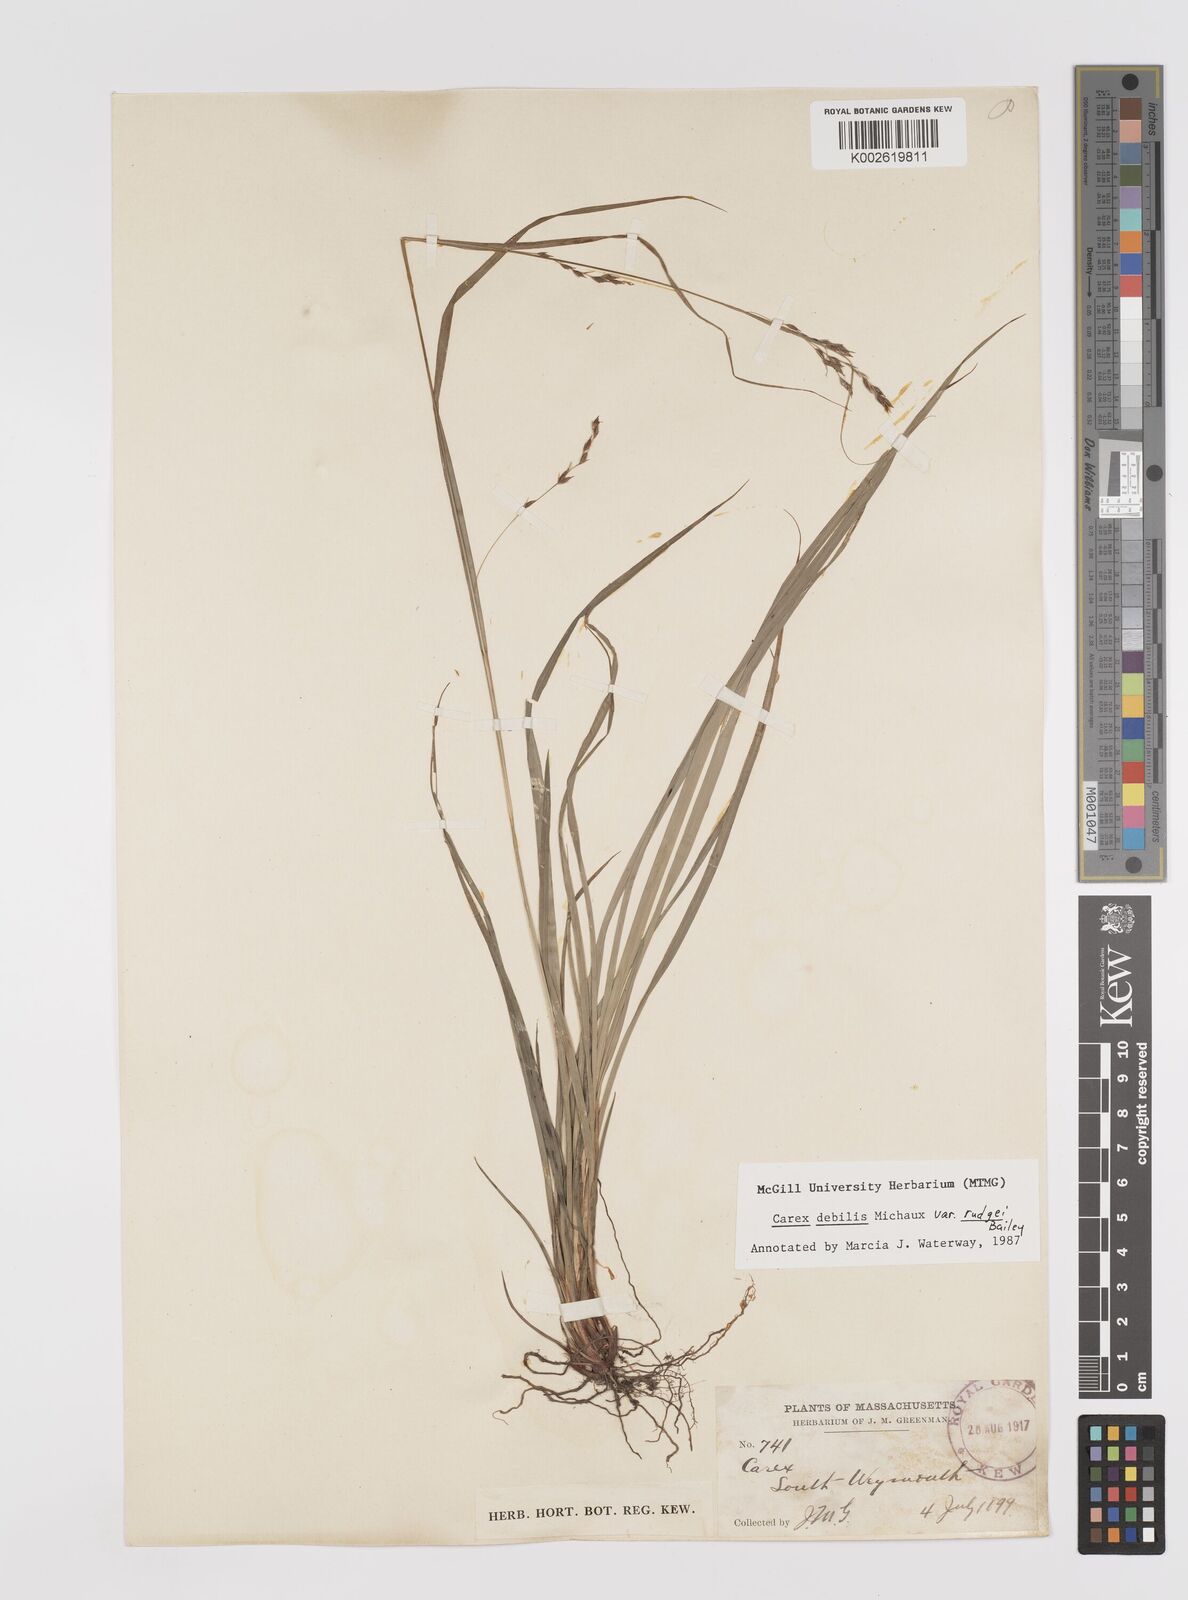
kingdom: Plantae
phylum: Tracheophyta
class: Liliopsida
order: Poales
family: Cyperaceae
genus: Carex
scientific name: Carex debilis
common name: White-edge sedge
